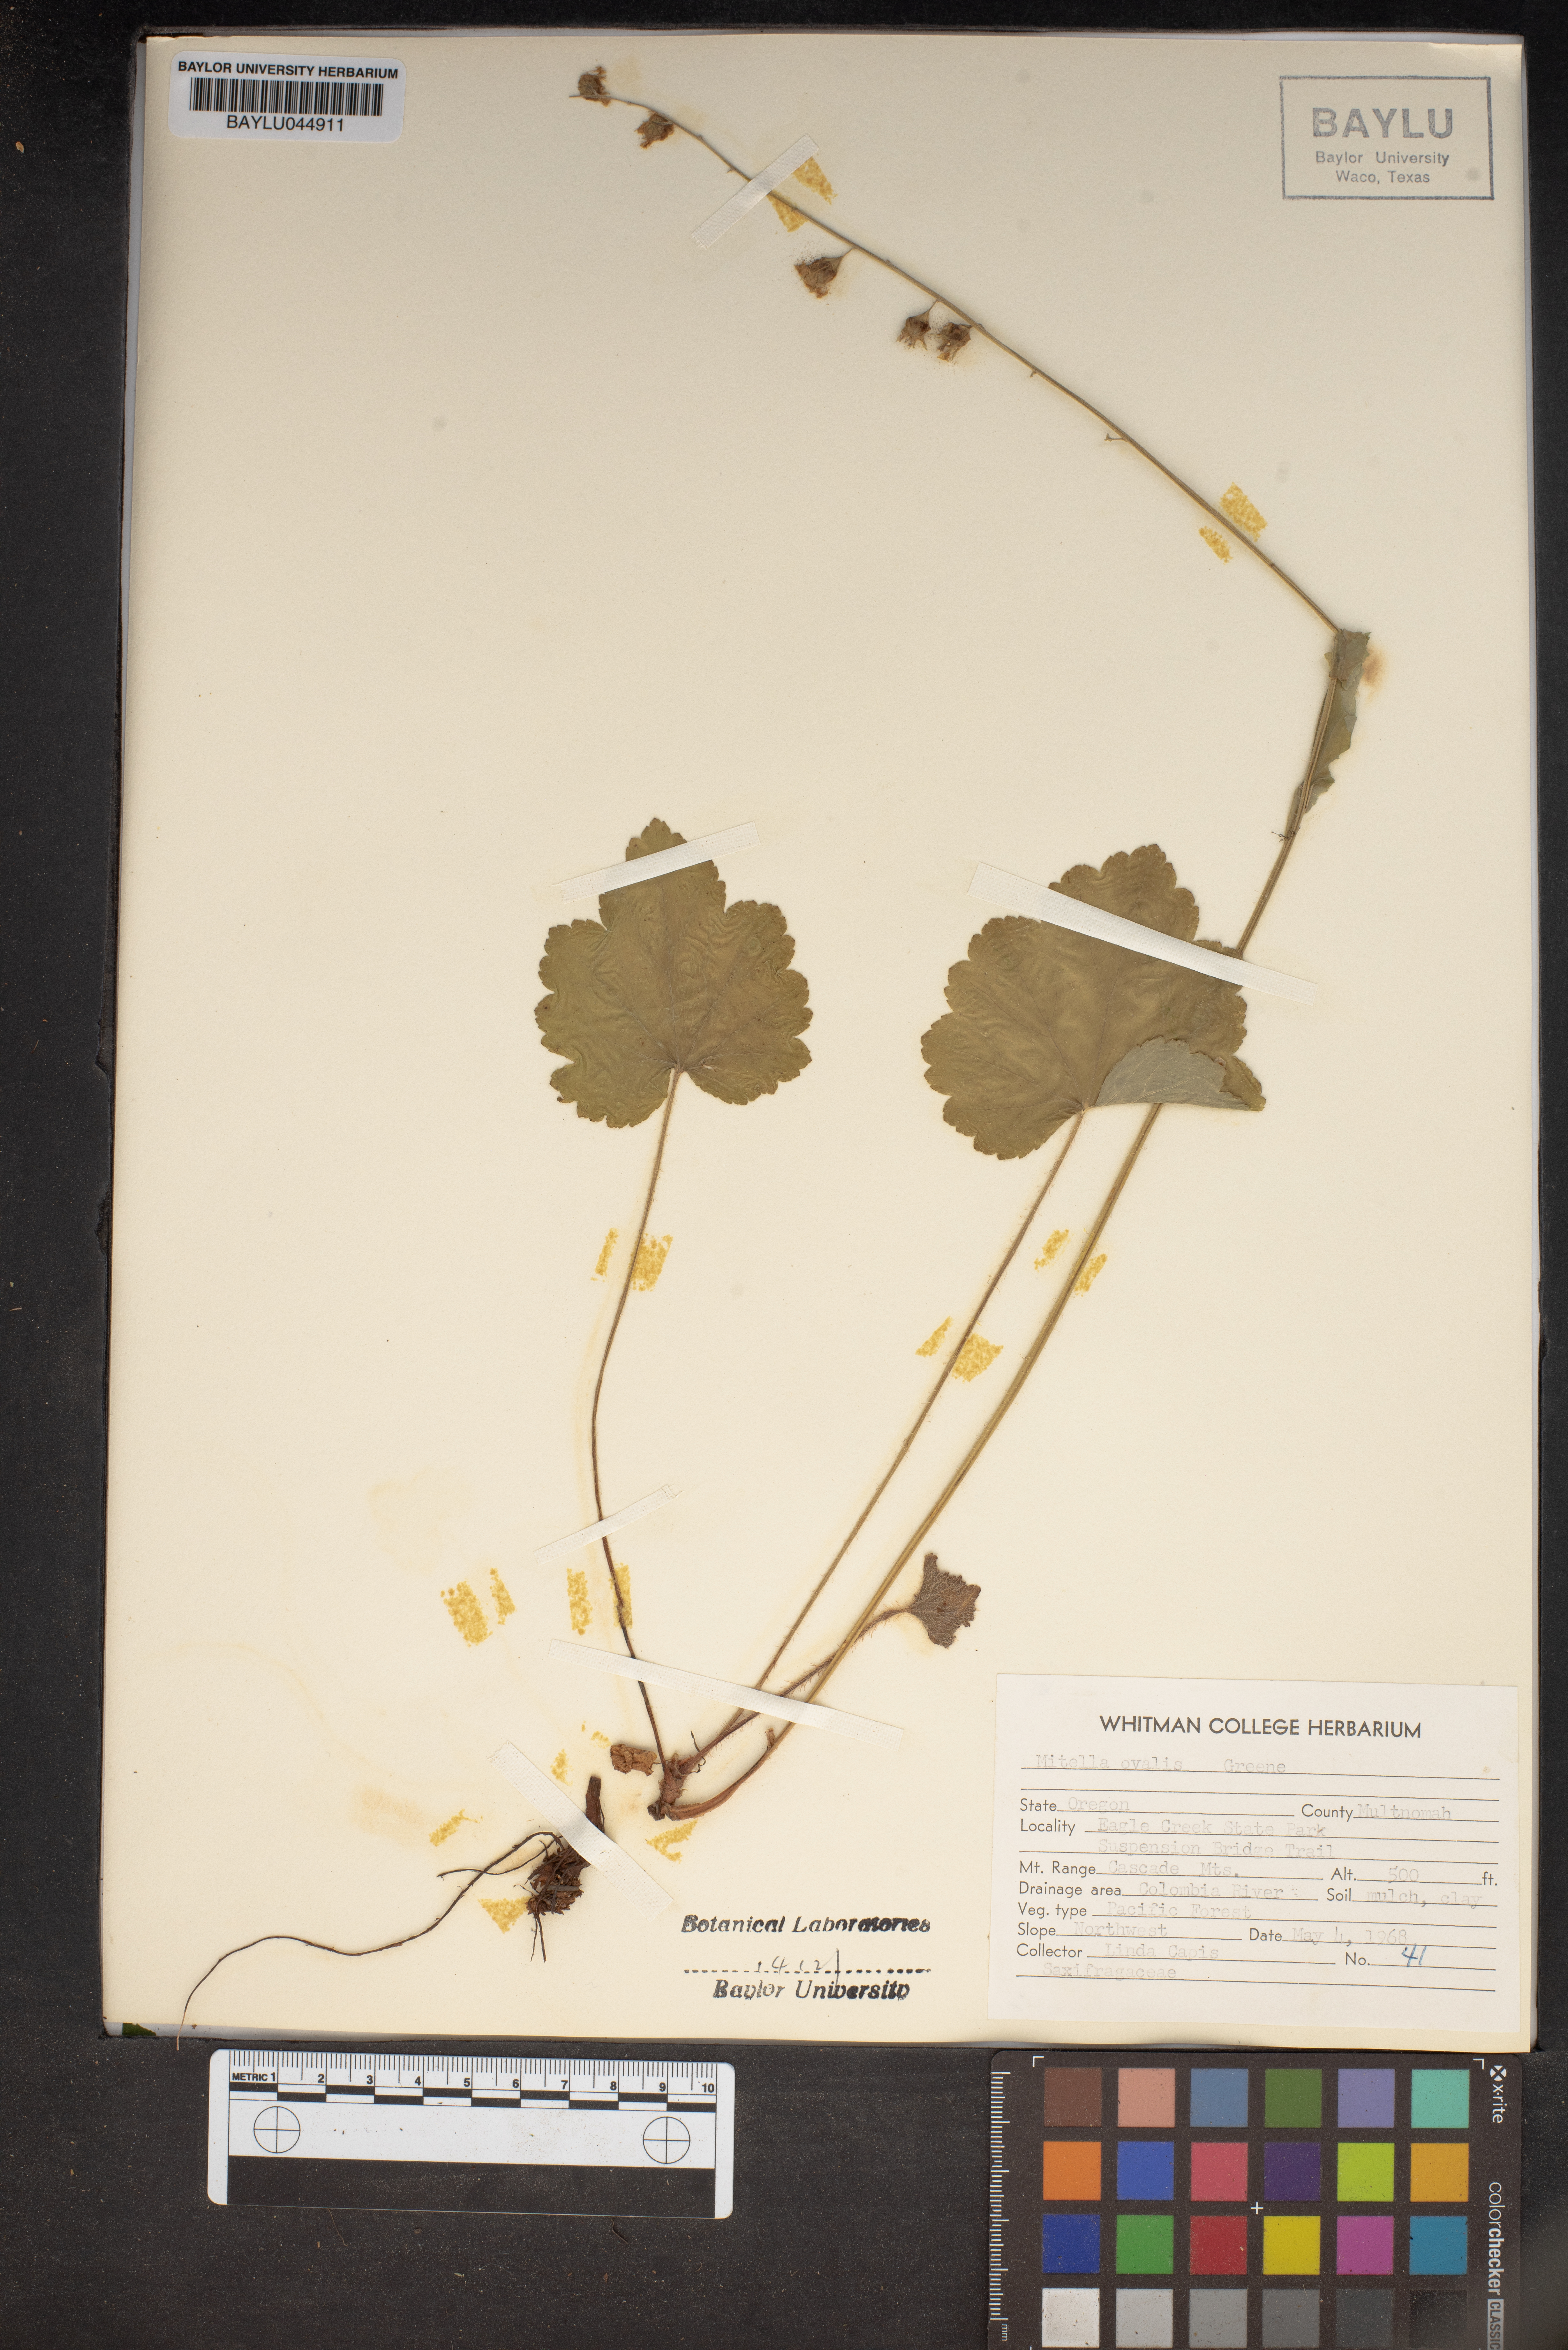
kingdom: Plantae
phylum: Tracheophyta
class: Magnoliopsida
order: Saxifragales
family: Saxifragaceae
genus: Brewerimitella
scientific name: Brewerimitella ovalis
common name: Coastal bishop's-cap
